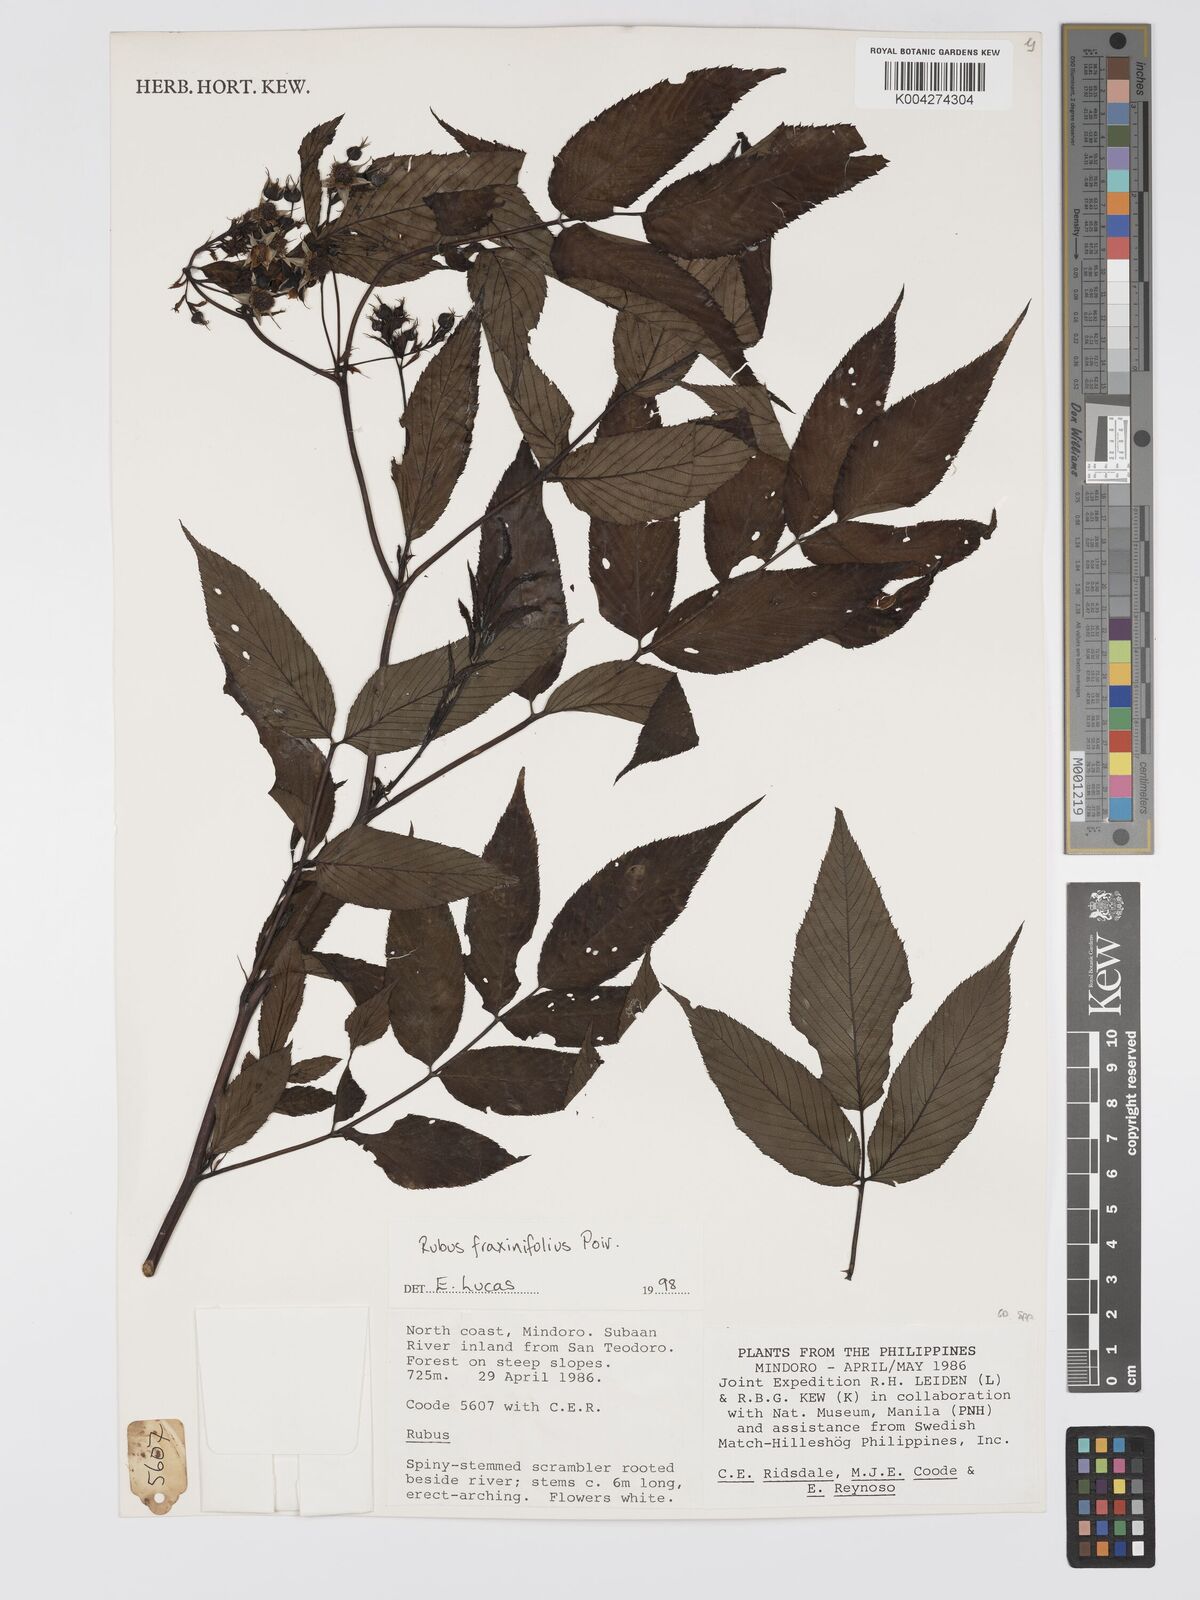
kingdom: Plantae
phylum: Tracheophyta
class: Magnoliopsida
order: Rosales
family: Rosaceae
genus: Rubus
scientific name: Rubus fraxinifolius
